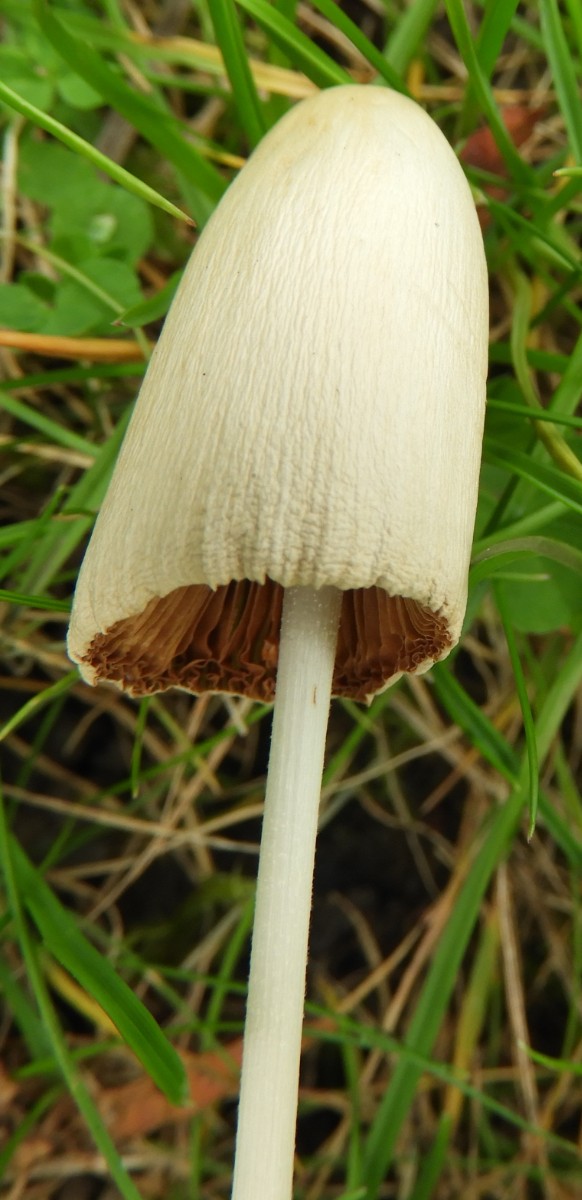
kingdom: Fungi
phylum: Basidiomycota
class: Agaricomycetes
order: Agaricales
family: Bolbitiaceae
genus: Conocybe
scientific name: Conocybe apala
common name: mælkehvid keglehat
